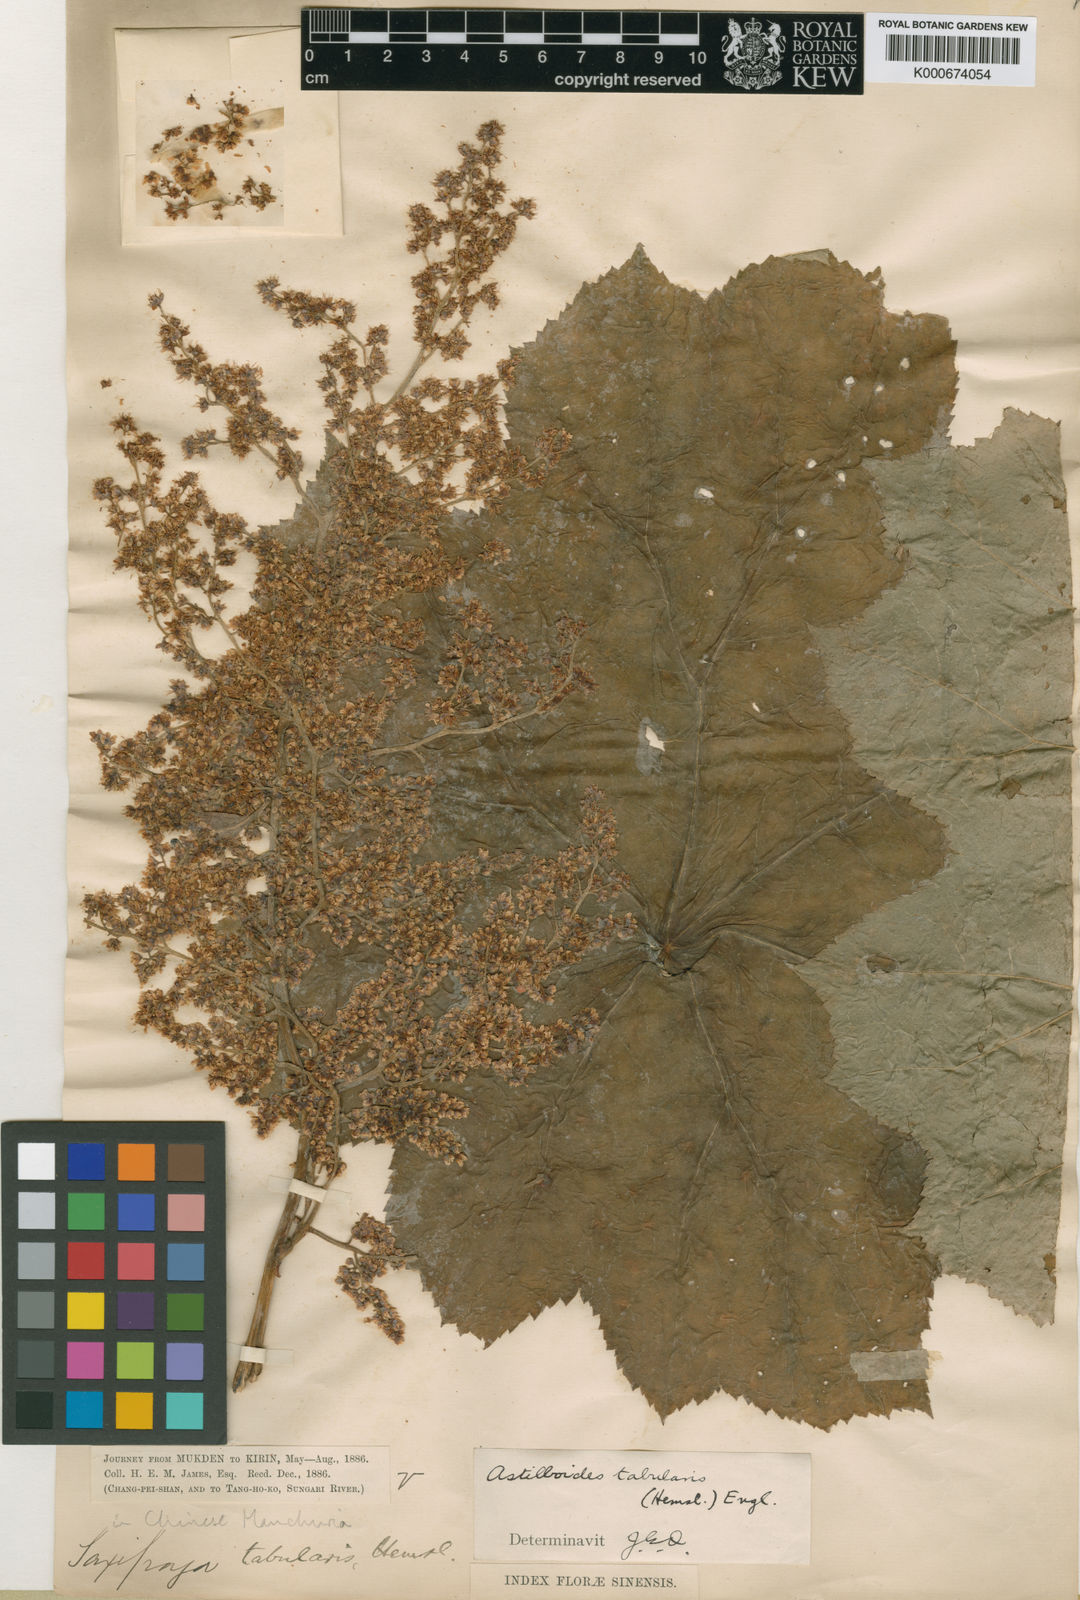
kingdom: Plantae
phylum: Tracheophyta
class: Magnoliopsida
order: Saxifragales
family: Saxifragaceae
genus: Astilboides
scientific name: Astilboides tabularis
